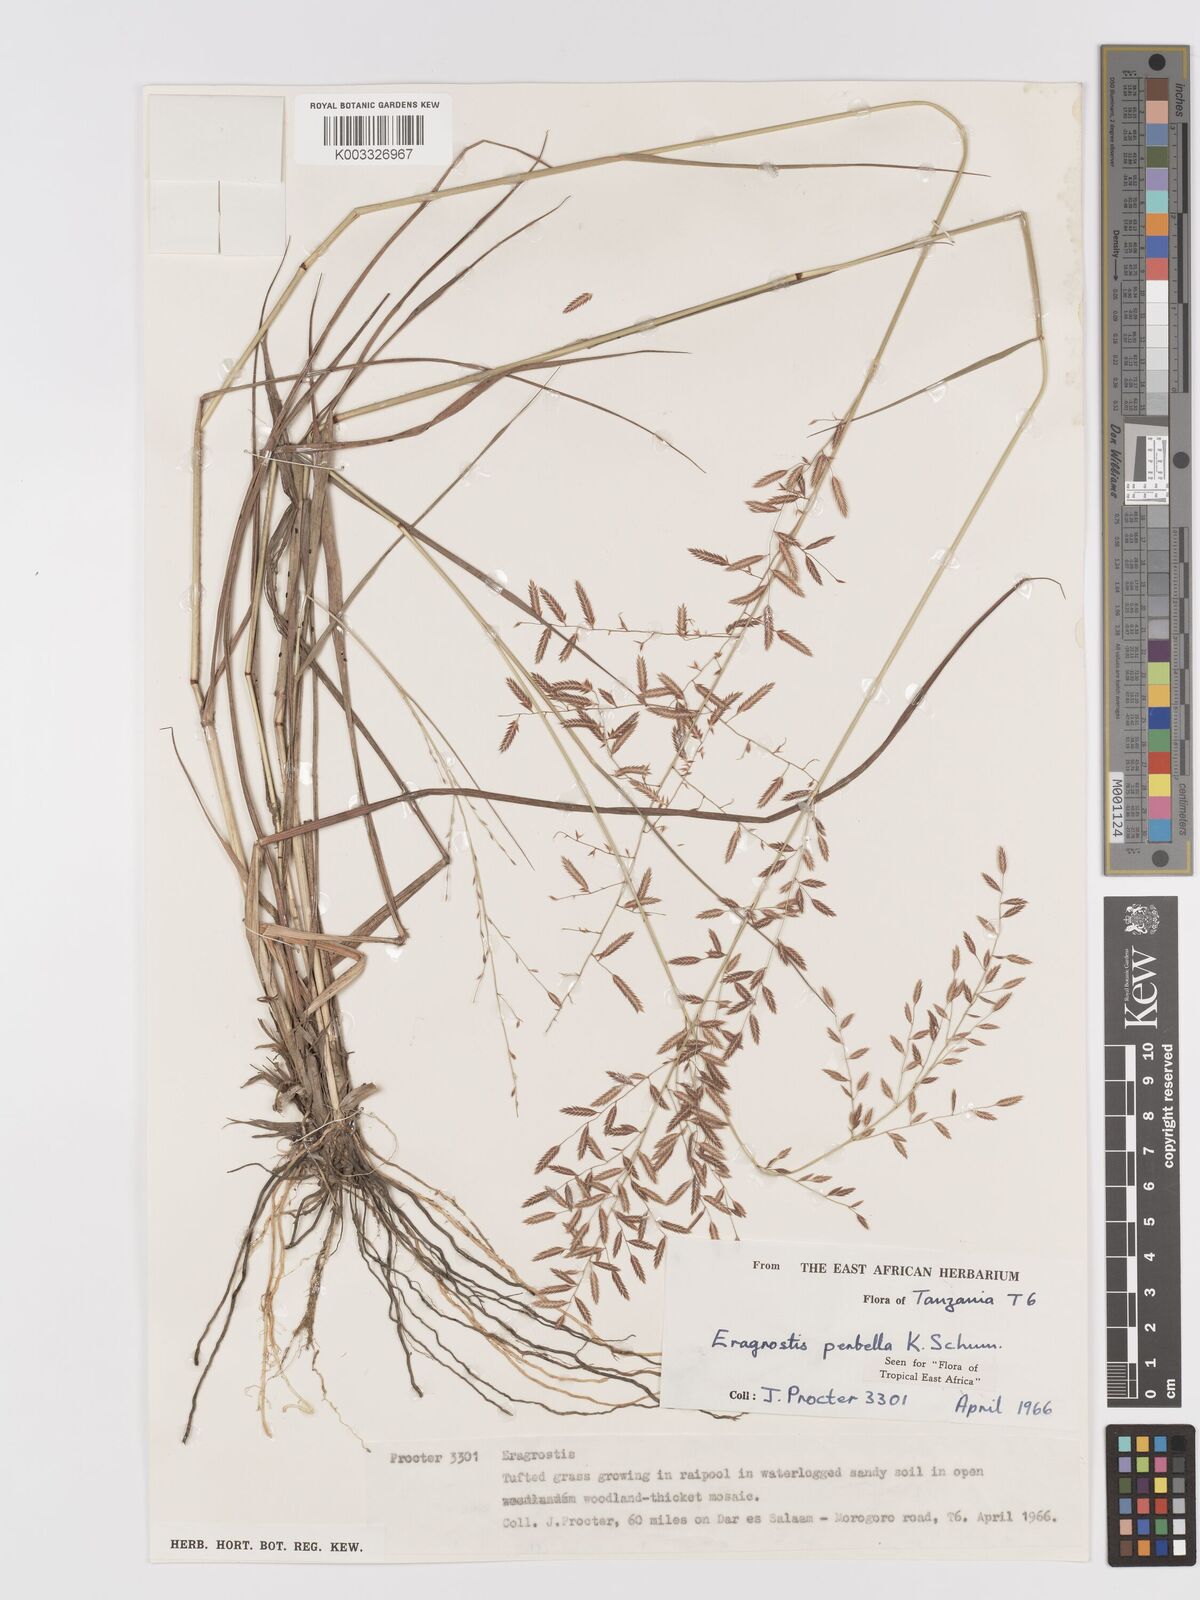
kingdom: Plantae
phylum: Tracheophyta
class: Liliopsida
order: Poales
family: Poaceae
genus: Eragrostis
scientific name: Eragrostis perbella
